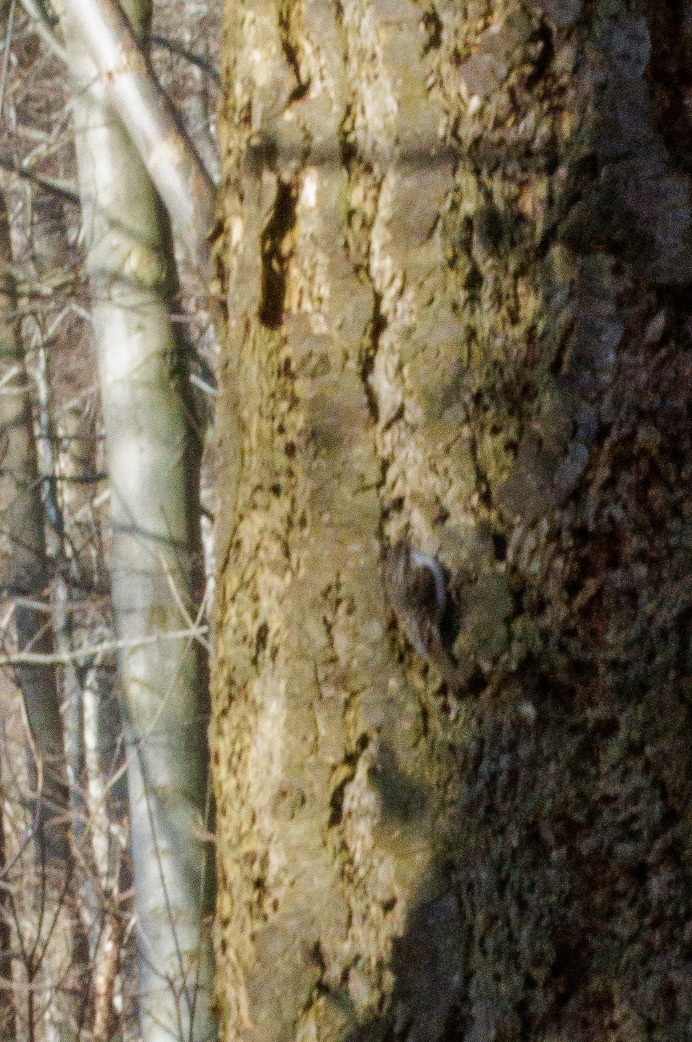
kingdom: Animalia
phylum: Chordata
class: Aves
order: Passeriformes
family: Certhiidae
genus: Certhia
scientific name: Certhia familiaris
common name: Træløber
